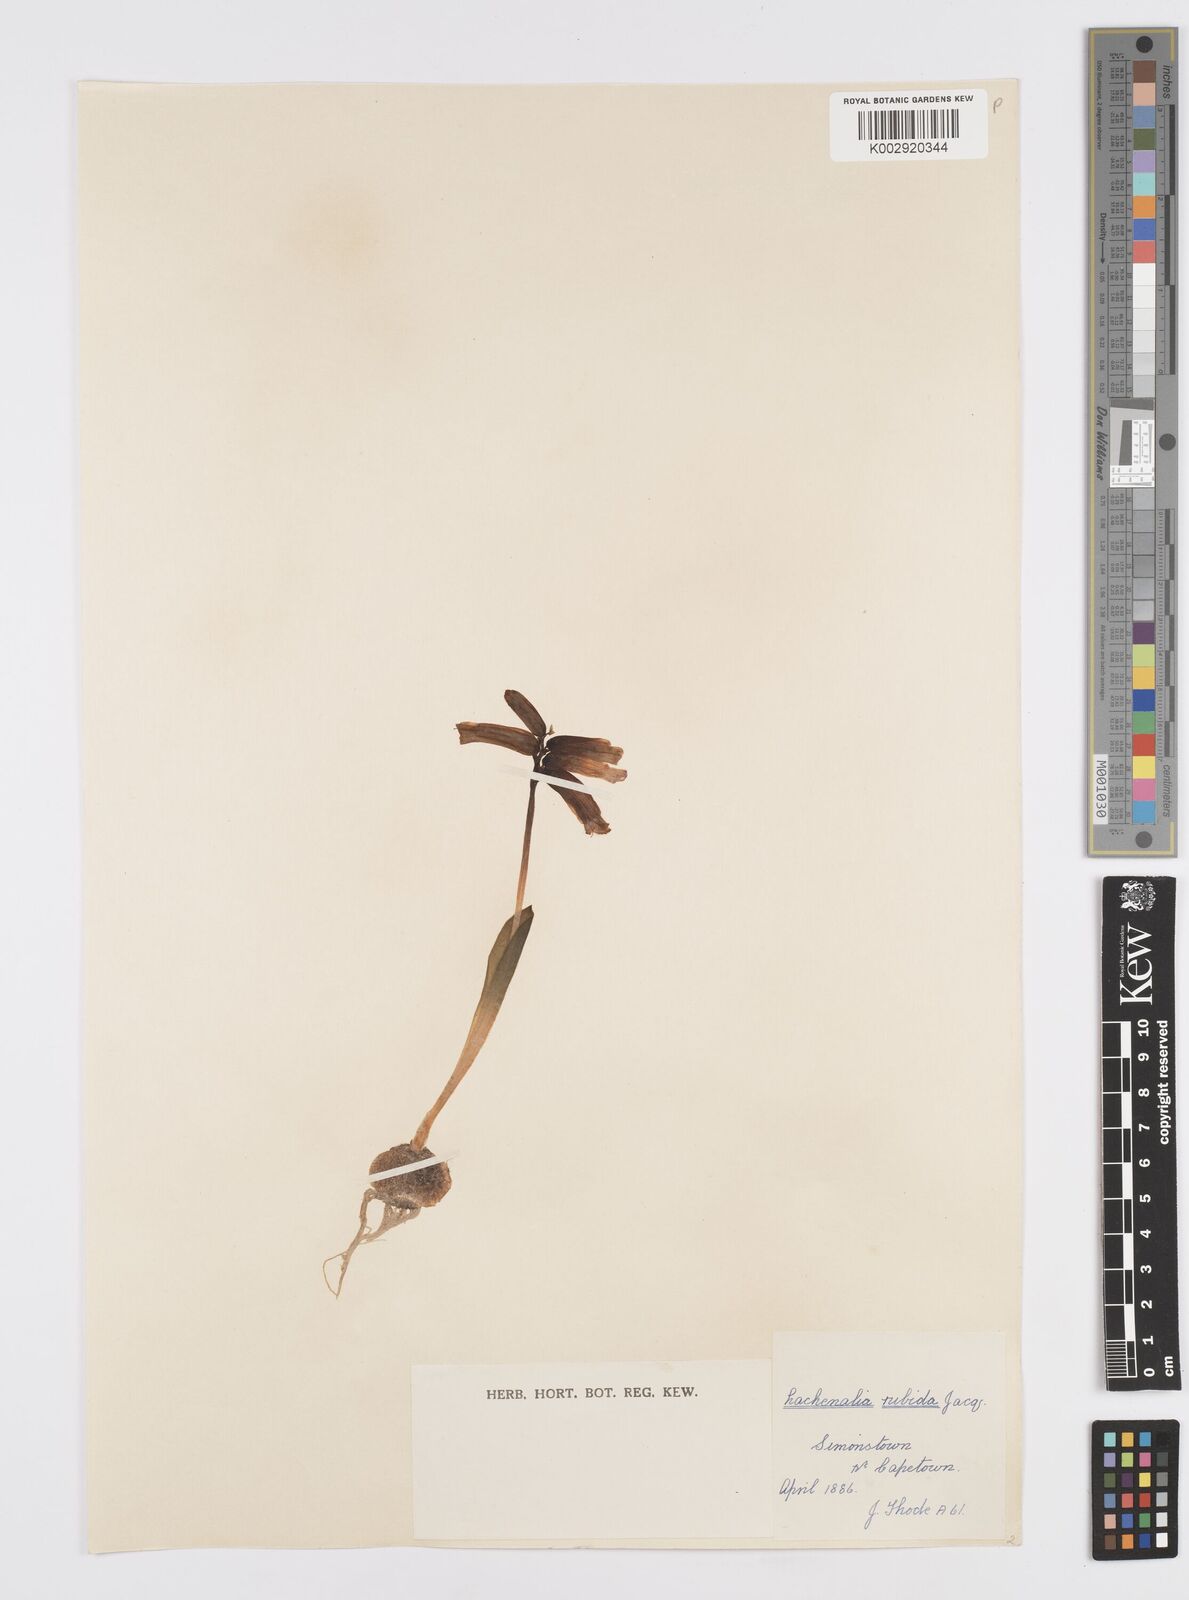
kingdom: Plantae
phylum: Tracheophyta
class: Liliopsida
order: Asparagales
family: Asparagaceae
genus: Lachenalia
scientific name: Lachenalia punctata
